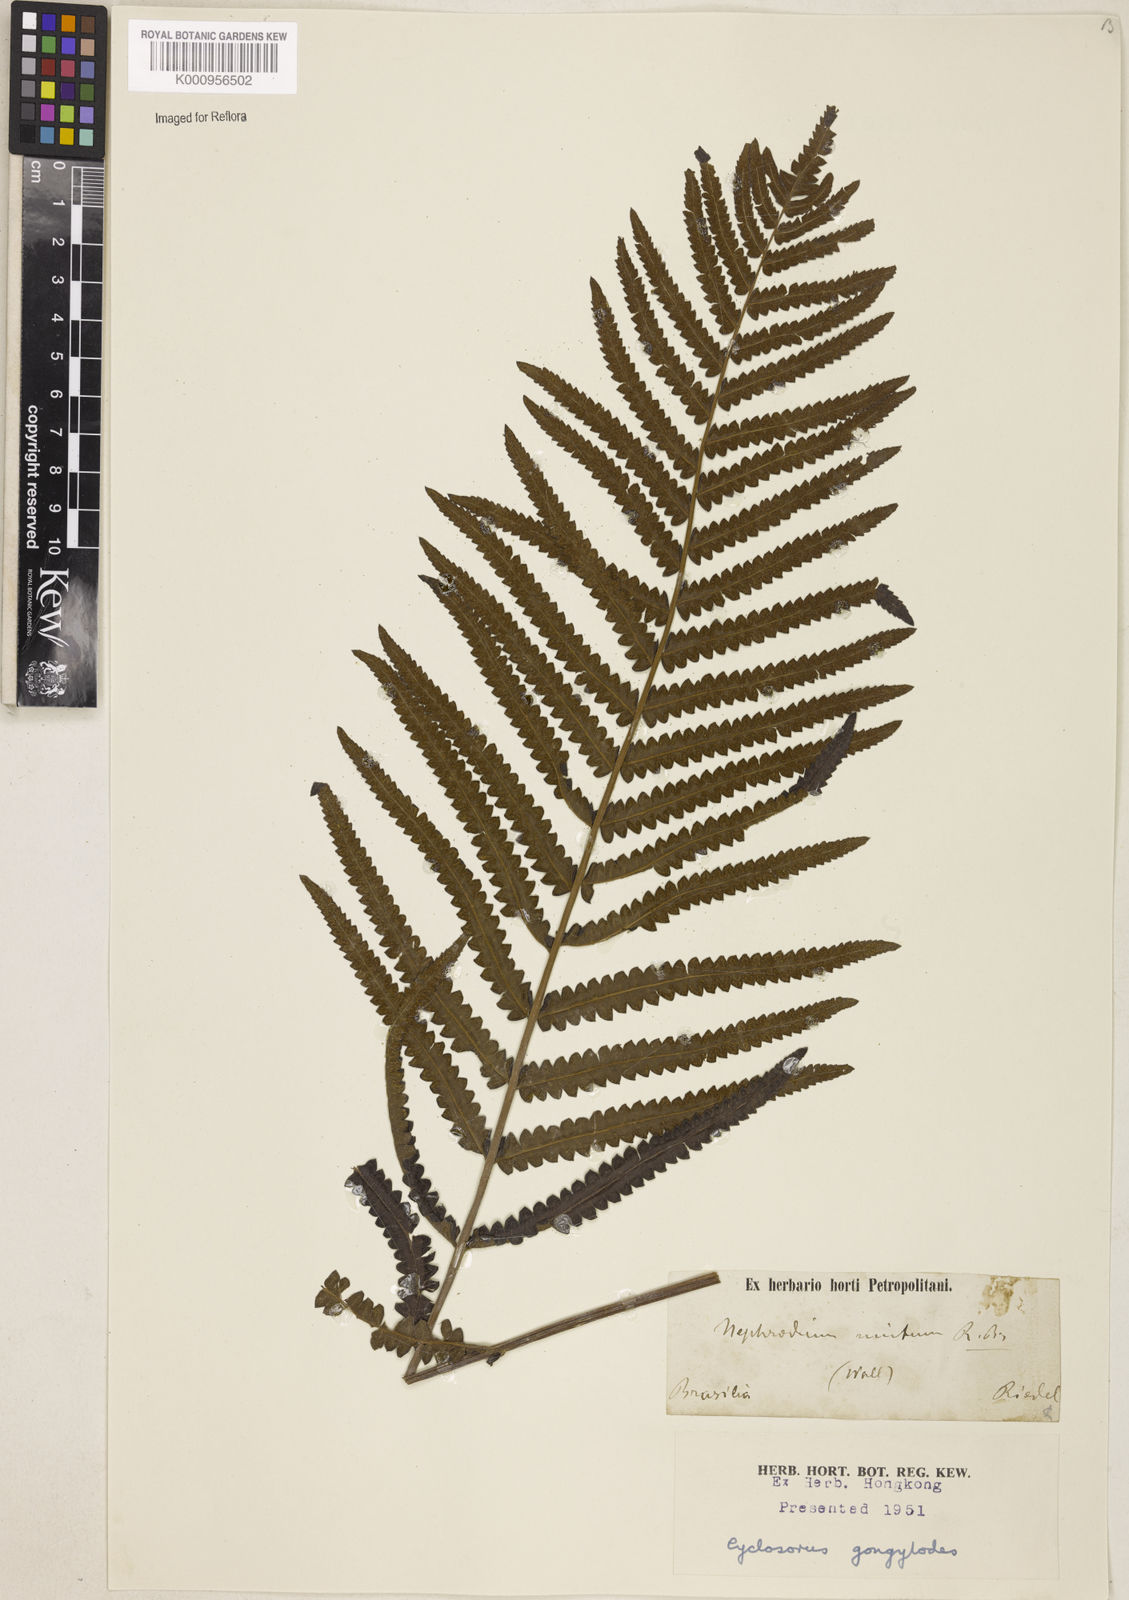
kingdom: Plantae
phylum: Tracheophyta
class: Polypodiopsida
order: Polypodiales
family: Thelypteridaceae
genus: Cyclosorus
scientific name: Cyclosorus interruptus
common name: Neke fern
